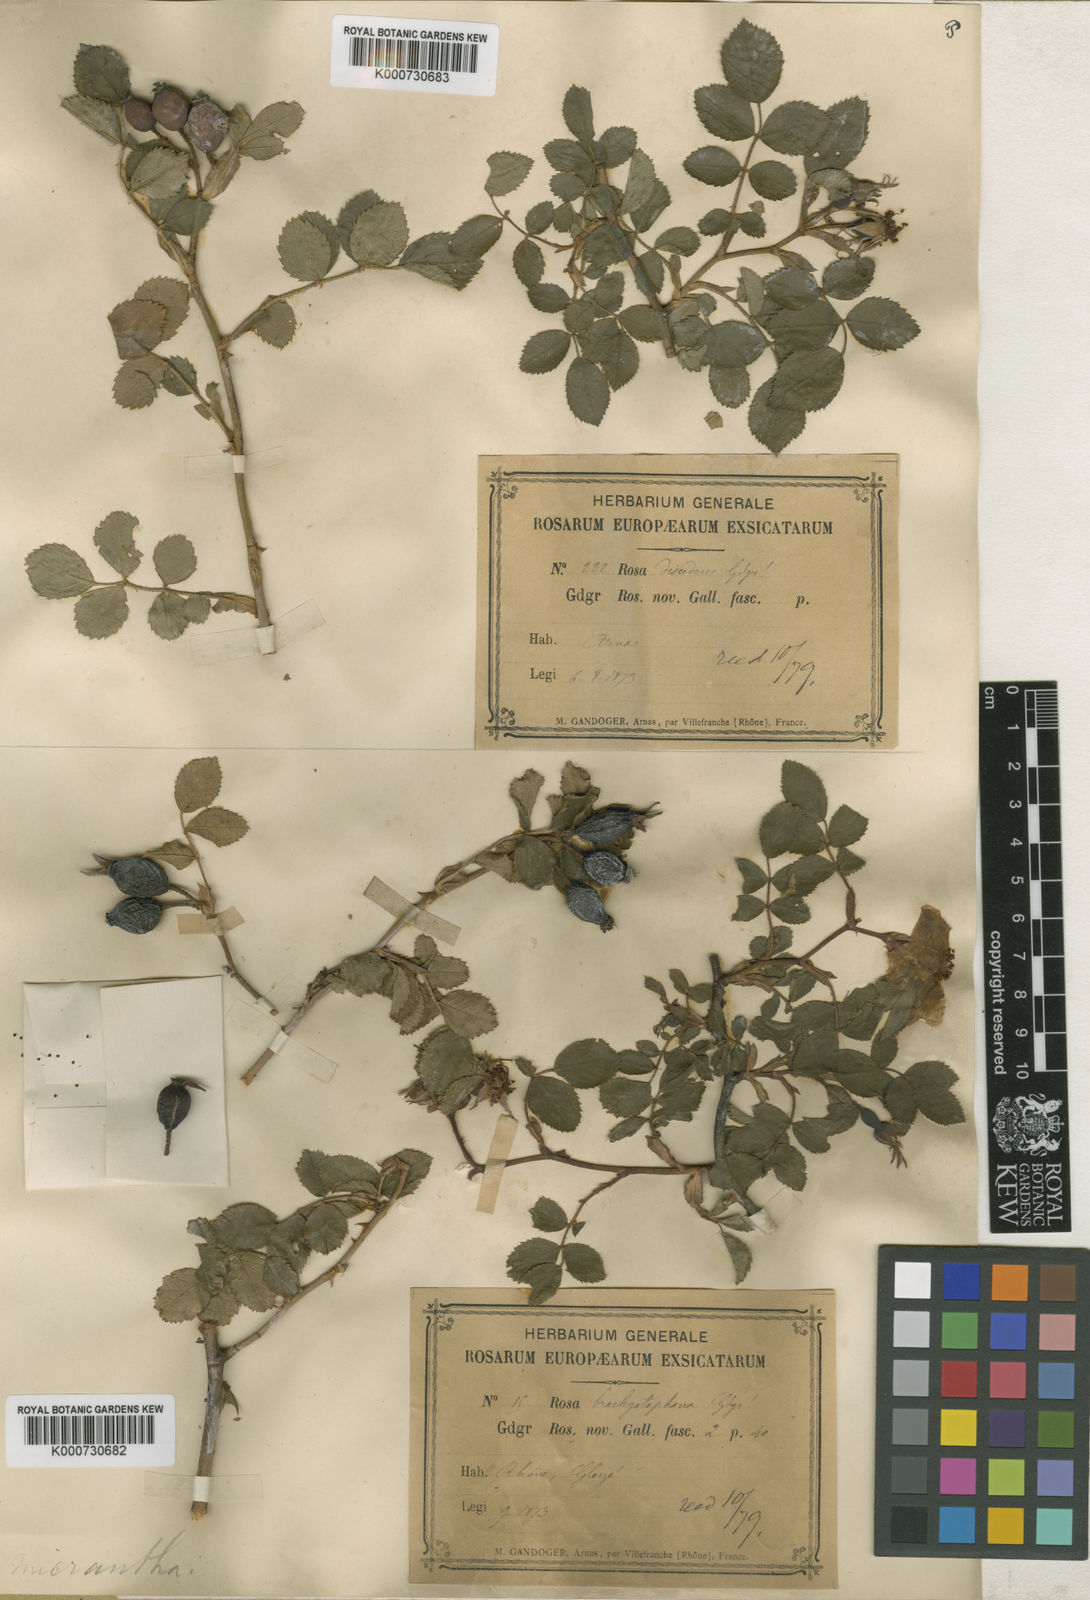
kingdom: Plantae
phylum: Tracheophyta
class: Magnoliopsida
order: Rosales
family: Rosaceae
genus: Rosa
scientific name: Rosa
